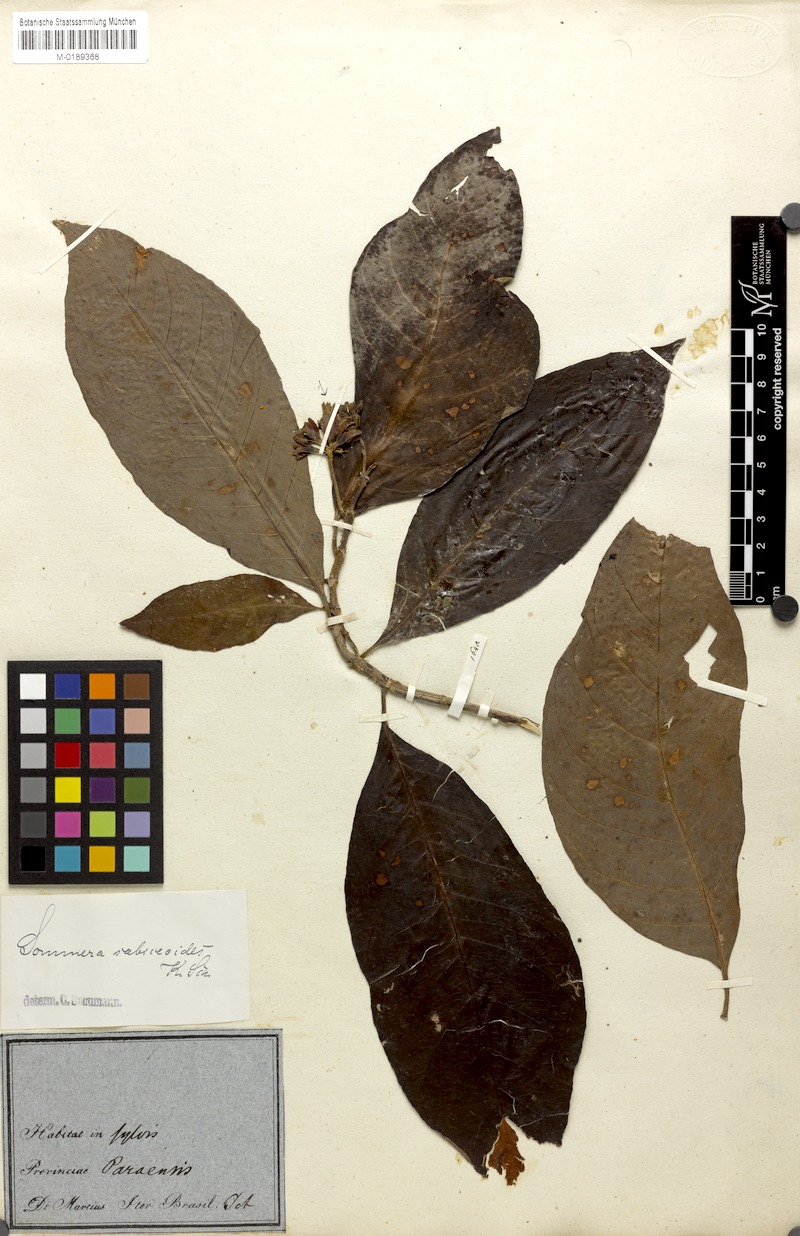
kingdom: Plantae
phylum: Tracheophyta
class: Magnoliopsida
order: Gentianales
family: Rubiaceae
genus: Sommera
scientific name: Sommera sabiceoides
